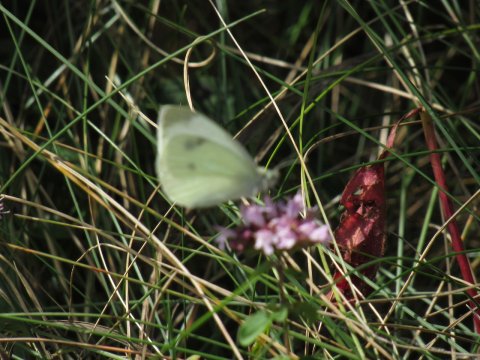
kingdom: Animalia
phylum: Arthropoda
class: Insecta
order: Lepidoptera
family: Pieridae
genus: Pieris
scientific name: Pieris rapae
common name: Cabbage White
